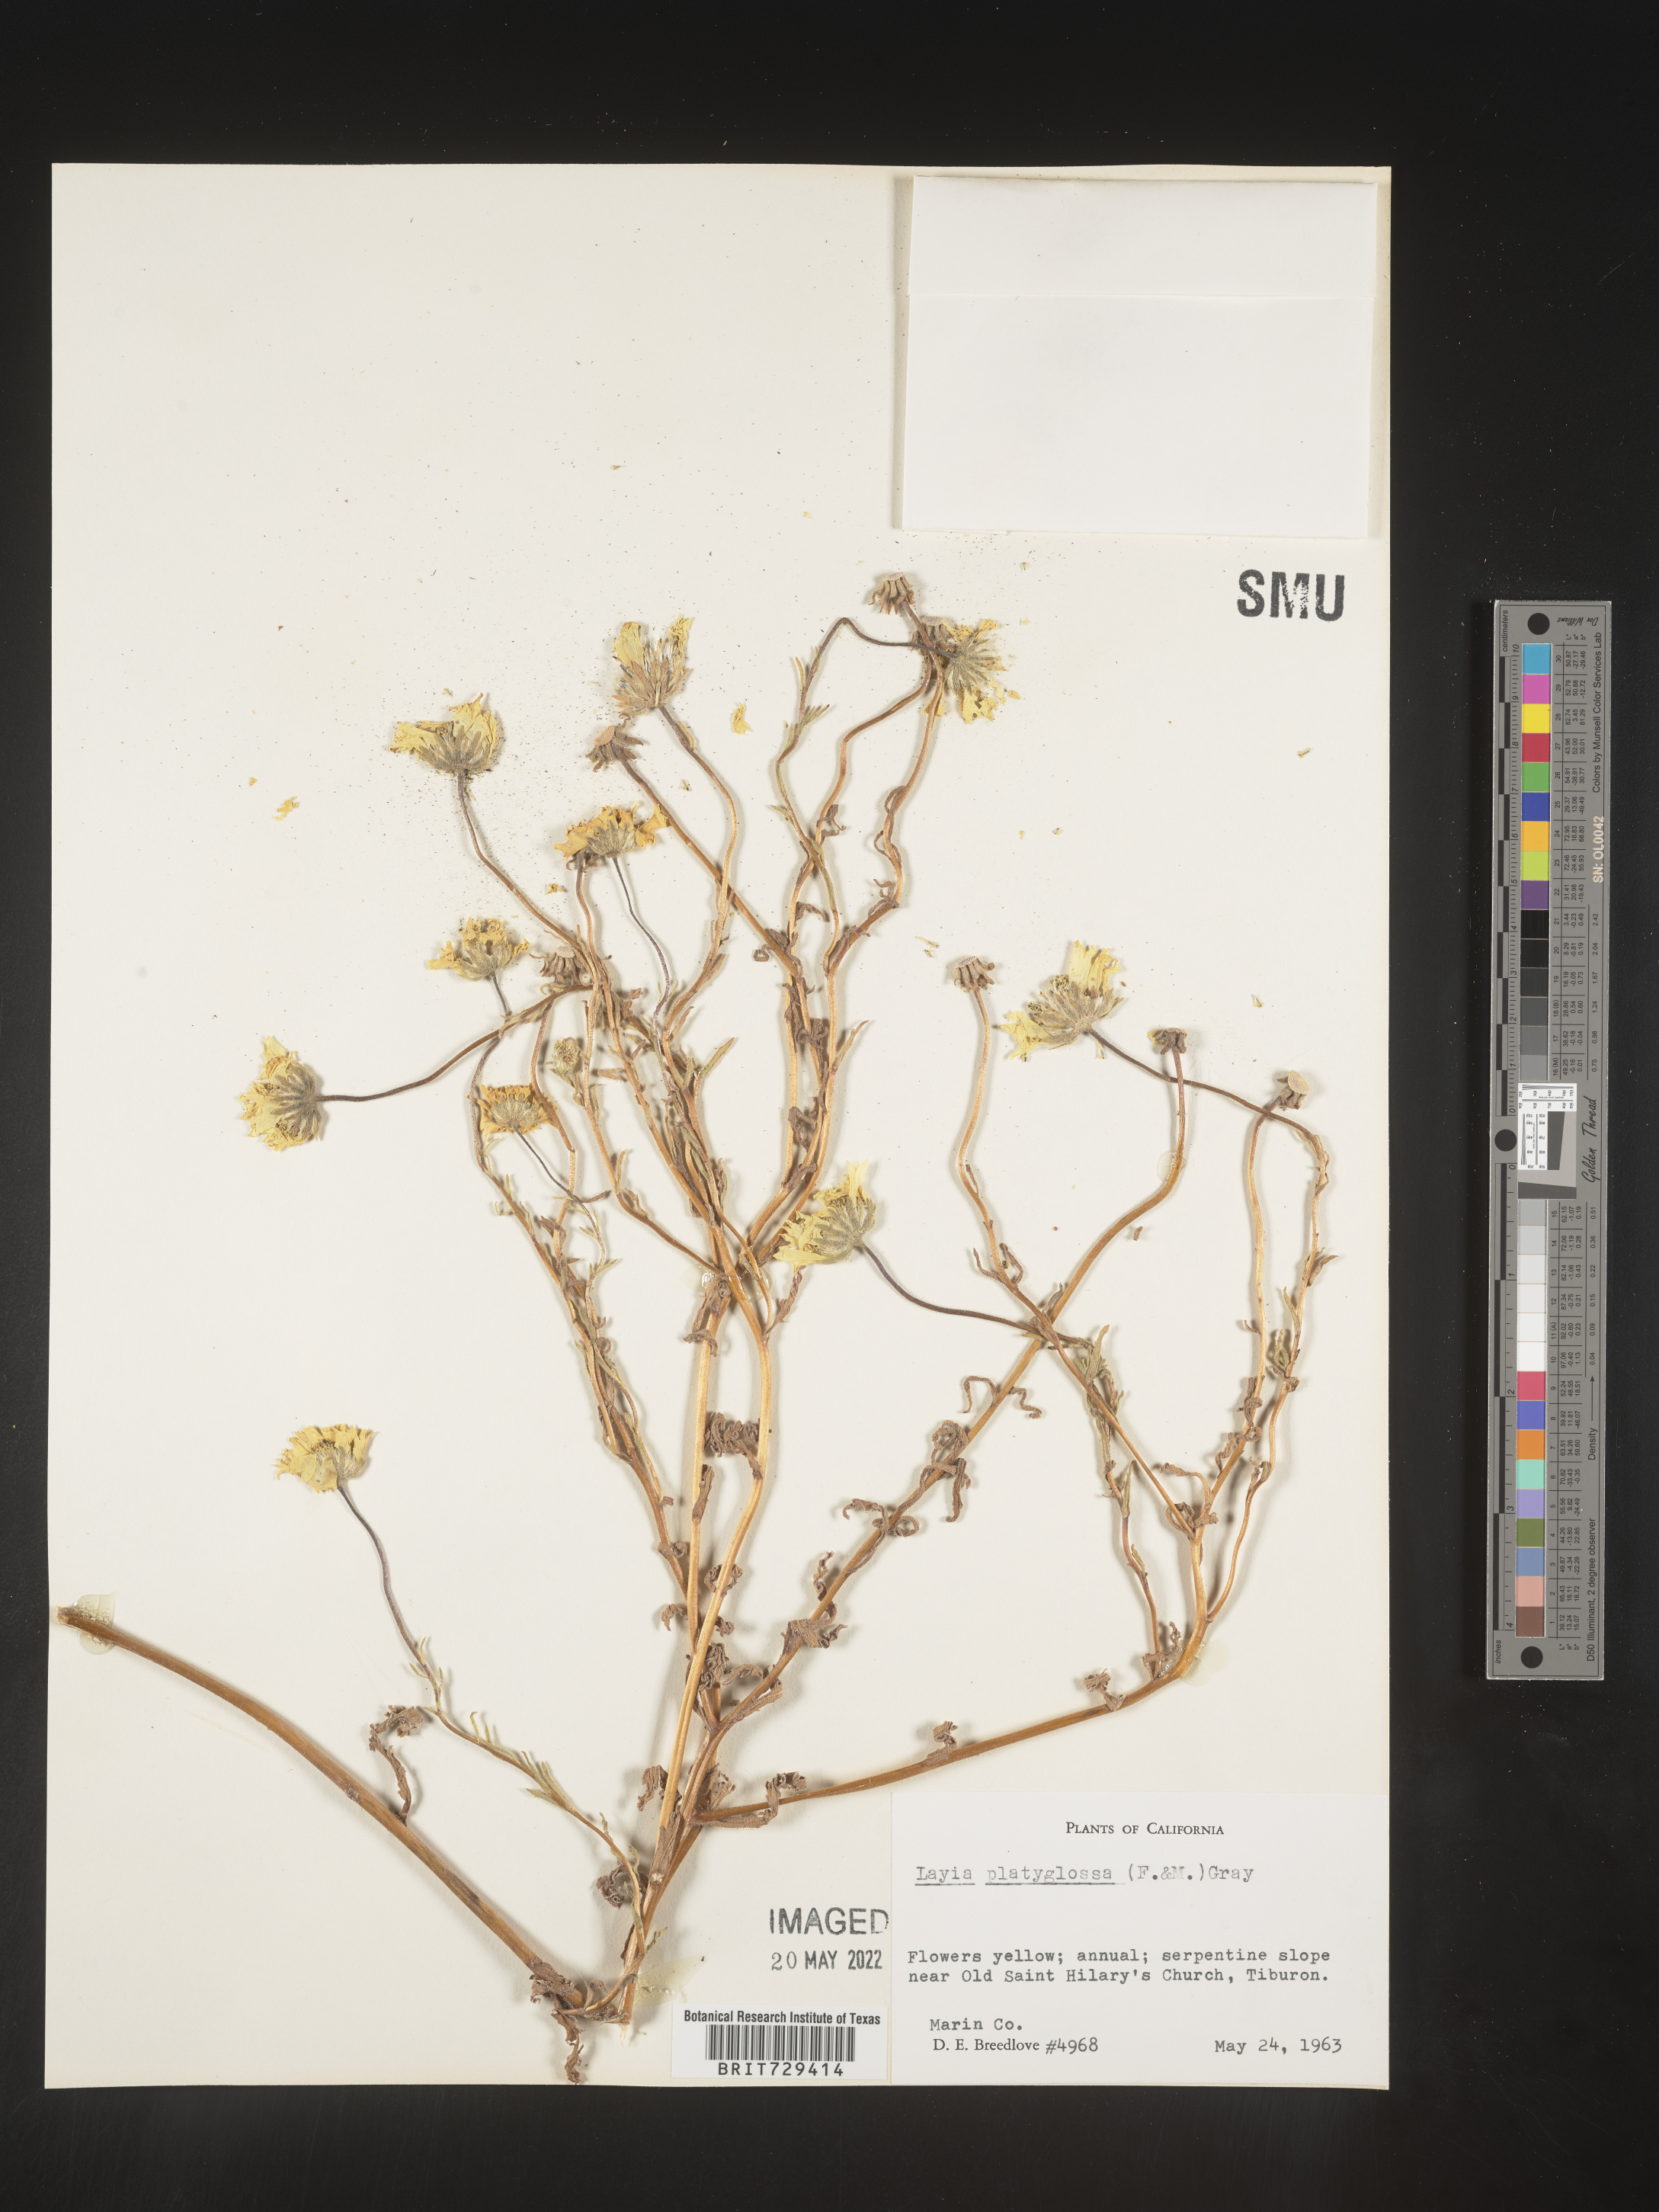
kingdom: Plantae
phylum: Tracheophyta
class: Magnoliopsida
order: Asterales
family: Asteraceae
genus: Layia
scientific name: Layia
